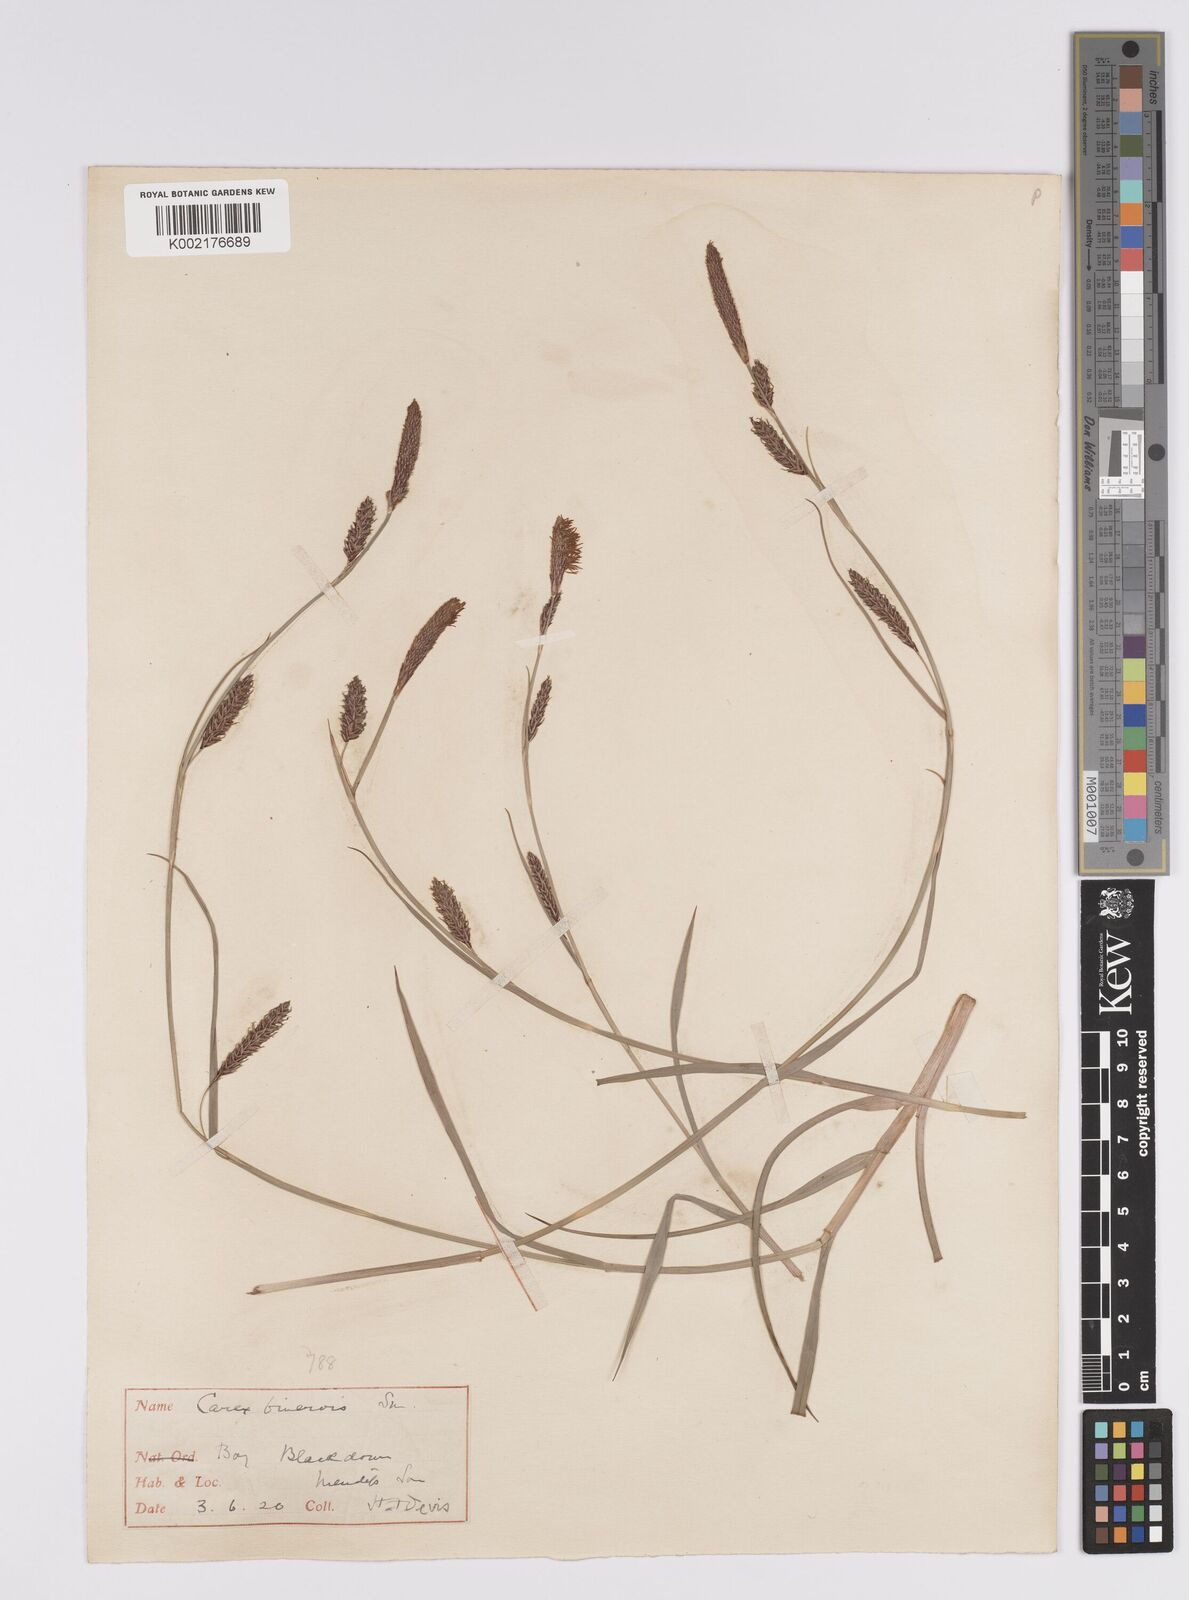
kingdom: Plantae
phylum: Tracheophyta
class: Liliopsida
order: Poales
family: Cyperaceae
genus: Carex
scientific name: Carex binervis
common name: Green-ribbed sedge
